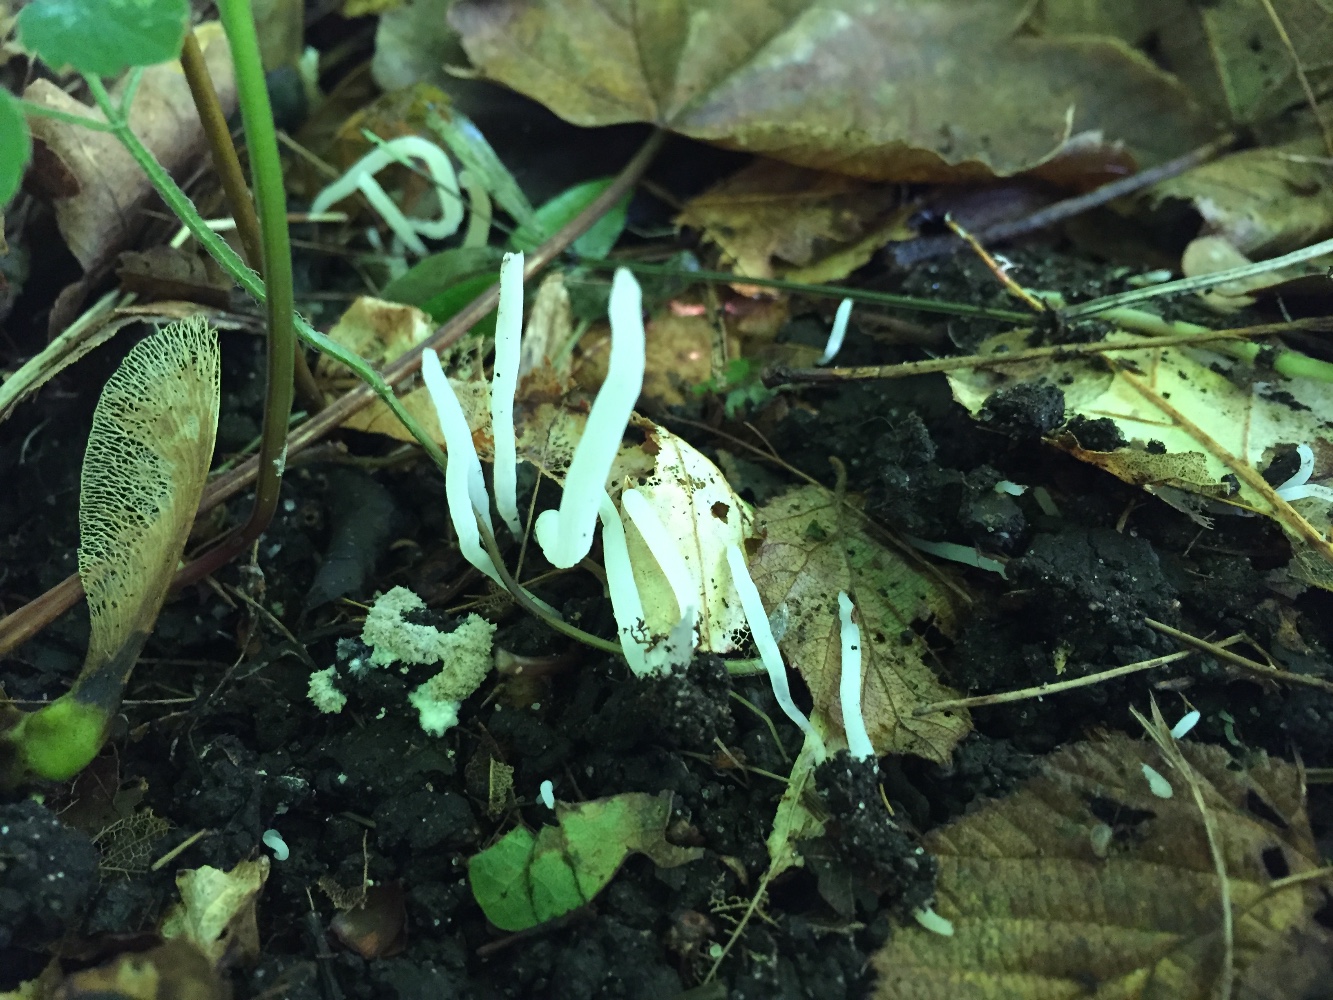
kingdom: Fungi
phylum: Basidiomycota
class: Agaricomycetes
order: Agaricales
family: Clavariaceae
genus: Clavaria
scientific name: Clavaria falcata
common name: hvid køllesvamp
